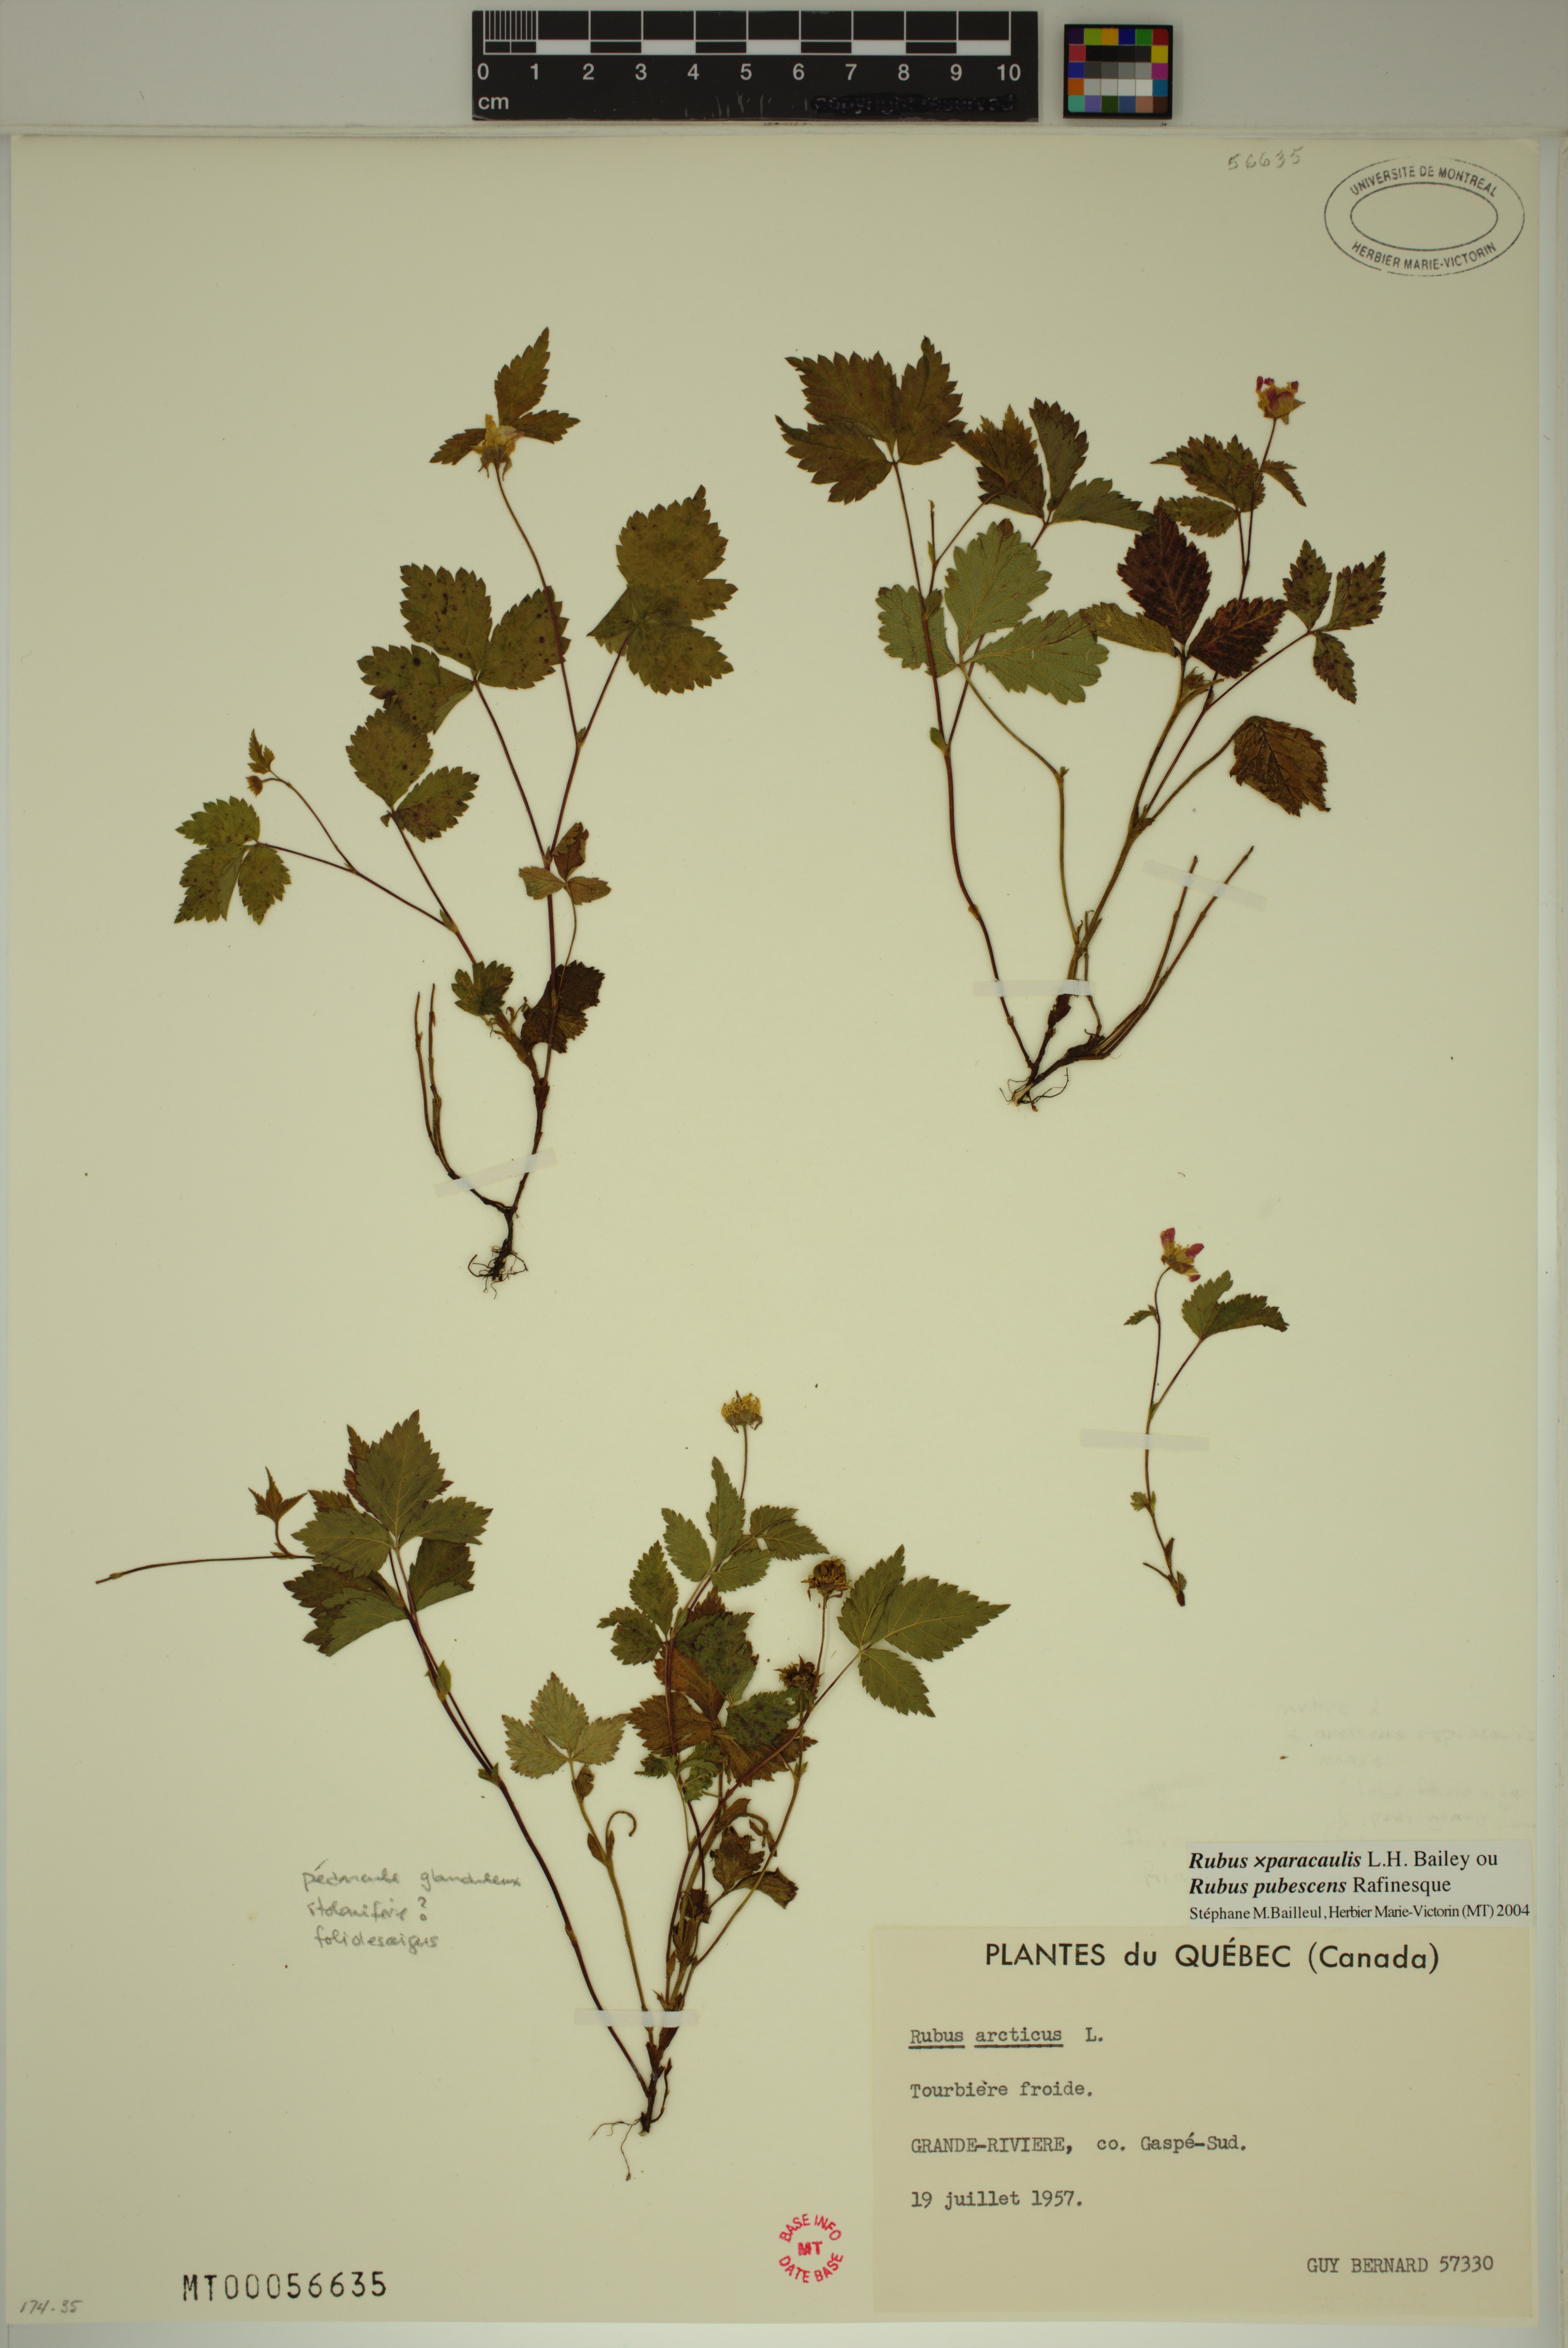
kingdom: Plantae
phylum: Tracheophyta
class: Magnoliopsida
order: Rosales
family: Rosaceae
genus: Rubus
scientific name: Rubus paracaulis
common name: Dwarf white-flowered raspberry
